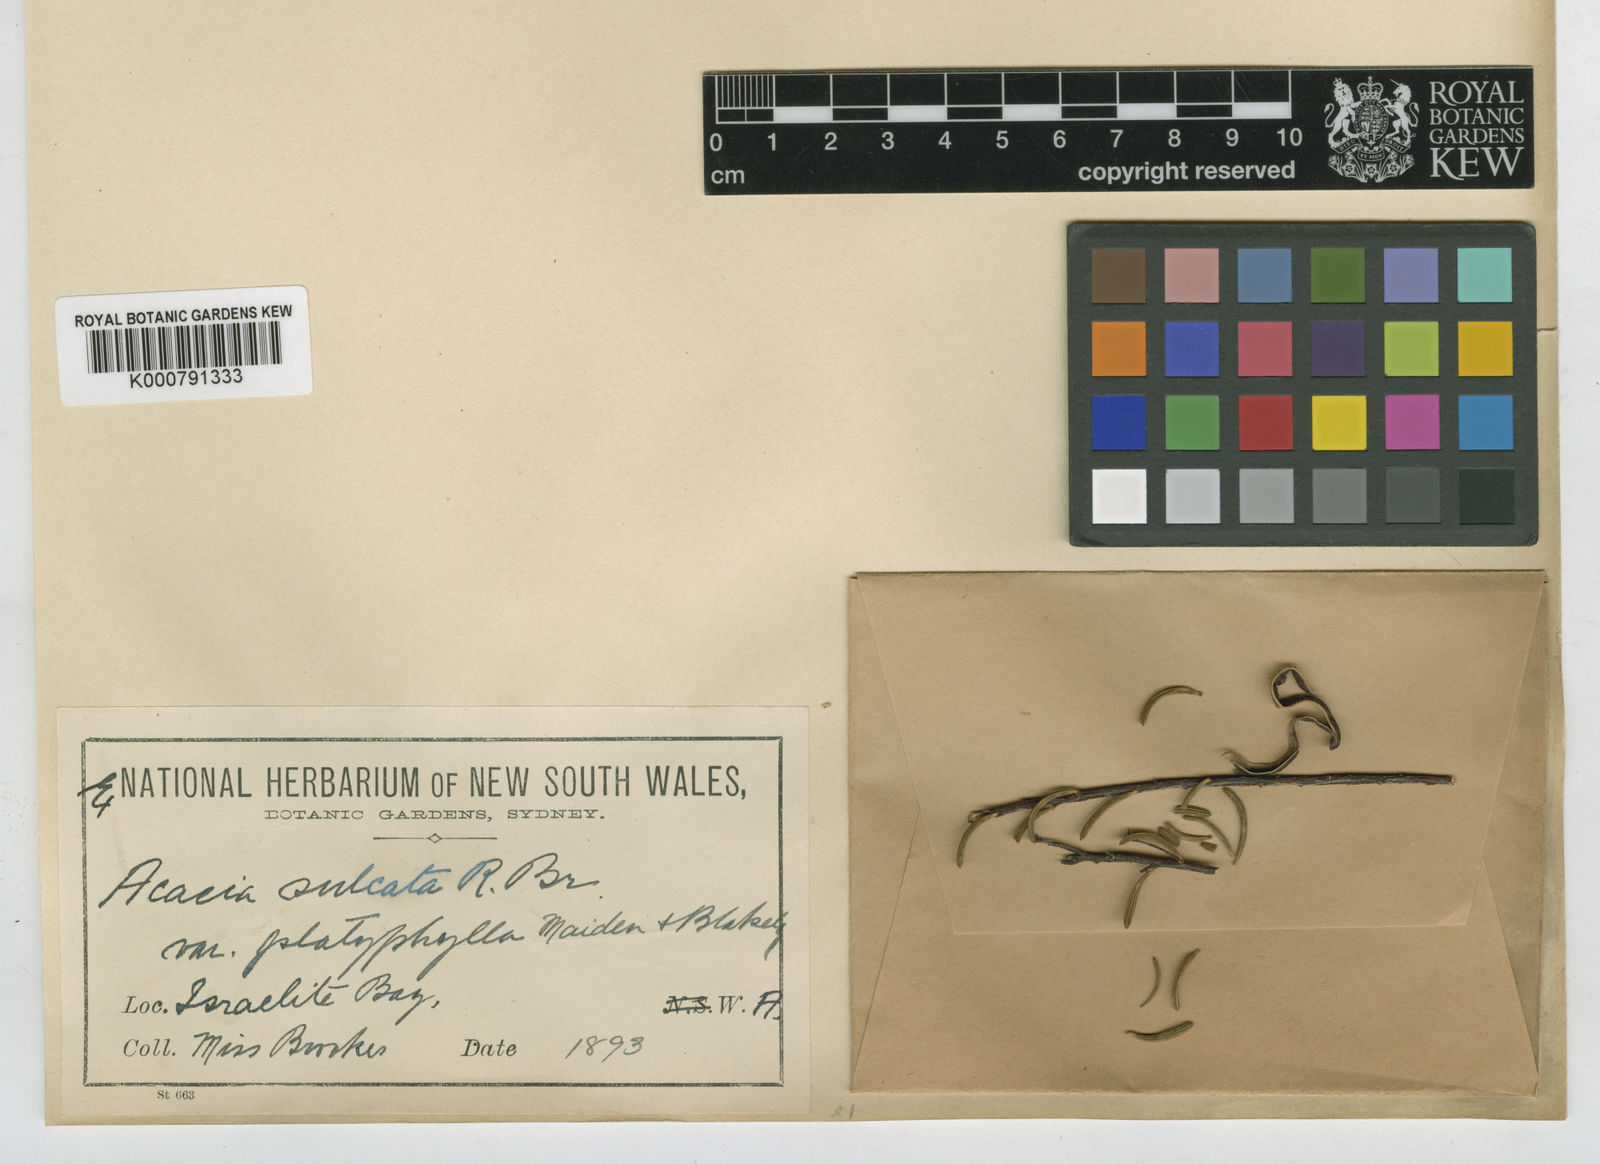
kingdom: Plantae
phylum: Tracheophyta
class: Magnoliopsida
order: Fabales
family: Fabaceae
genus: Acacia
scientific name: Acacia sulcata
